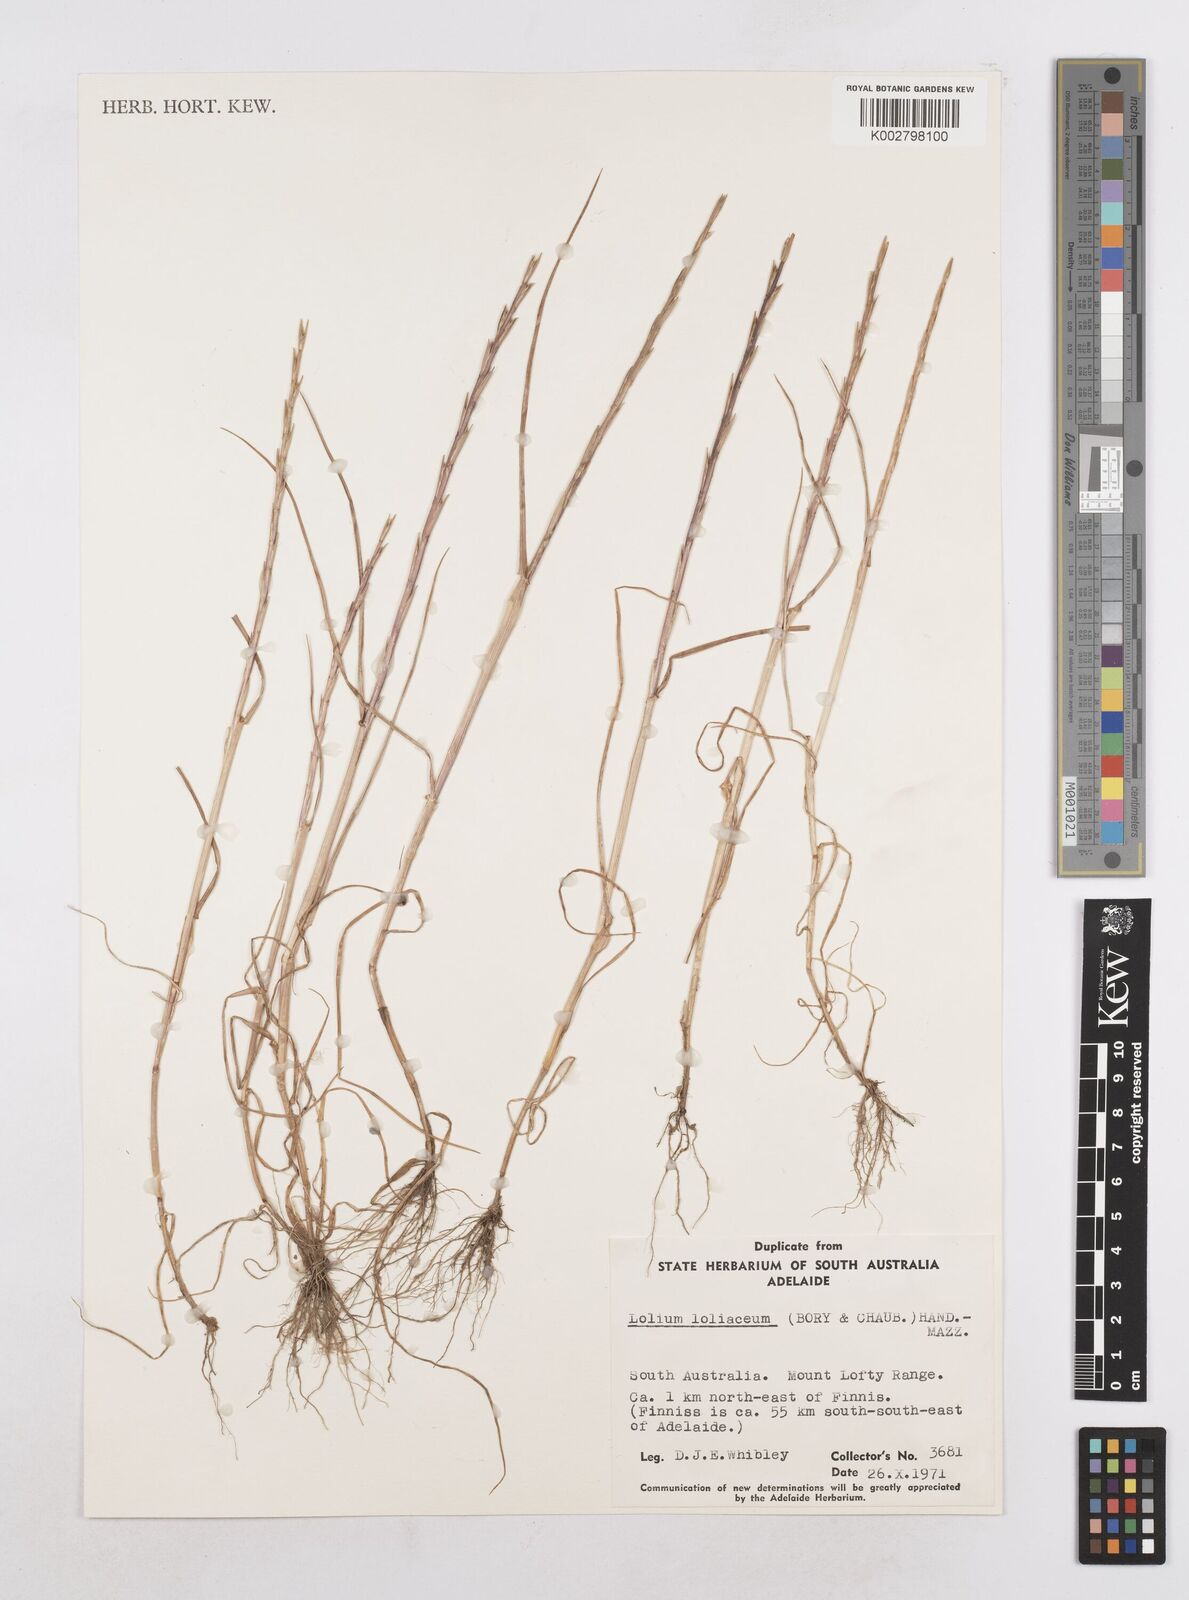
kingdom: Plantae
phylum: Tracheophyta
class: Liliopsida
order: Poales
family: Poaceae
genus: Lolium
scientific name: Lolium
